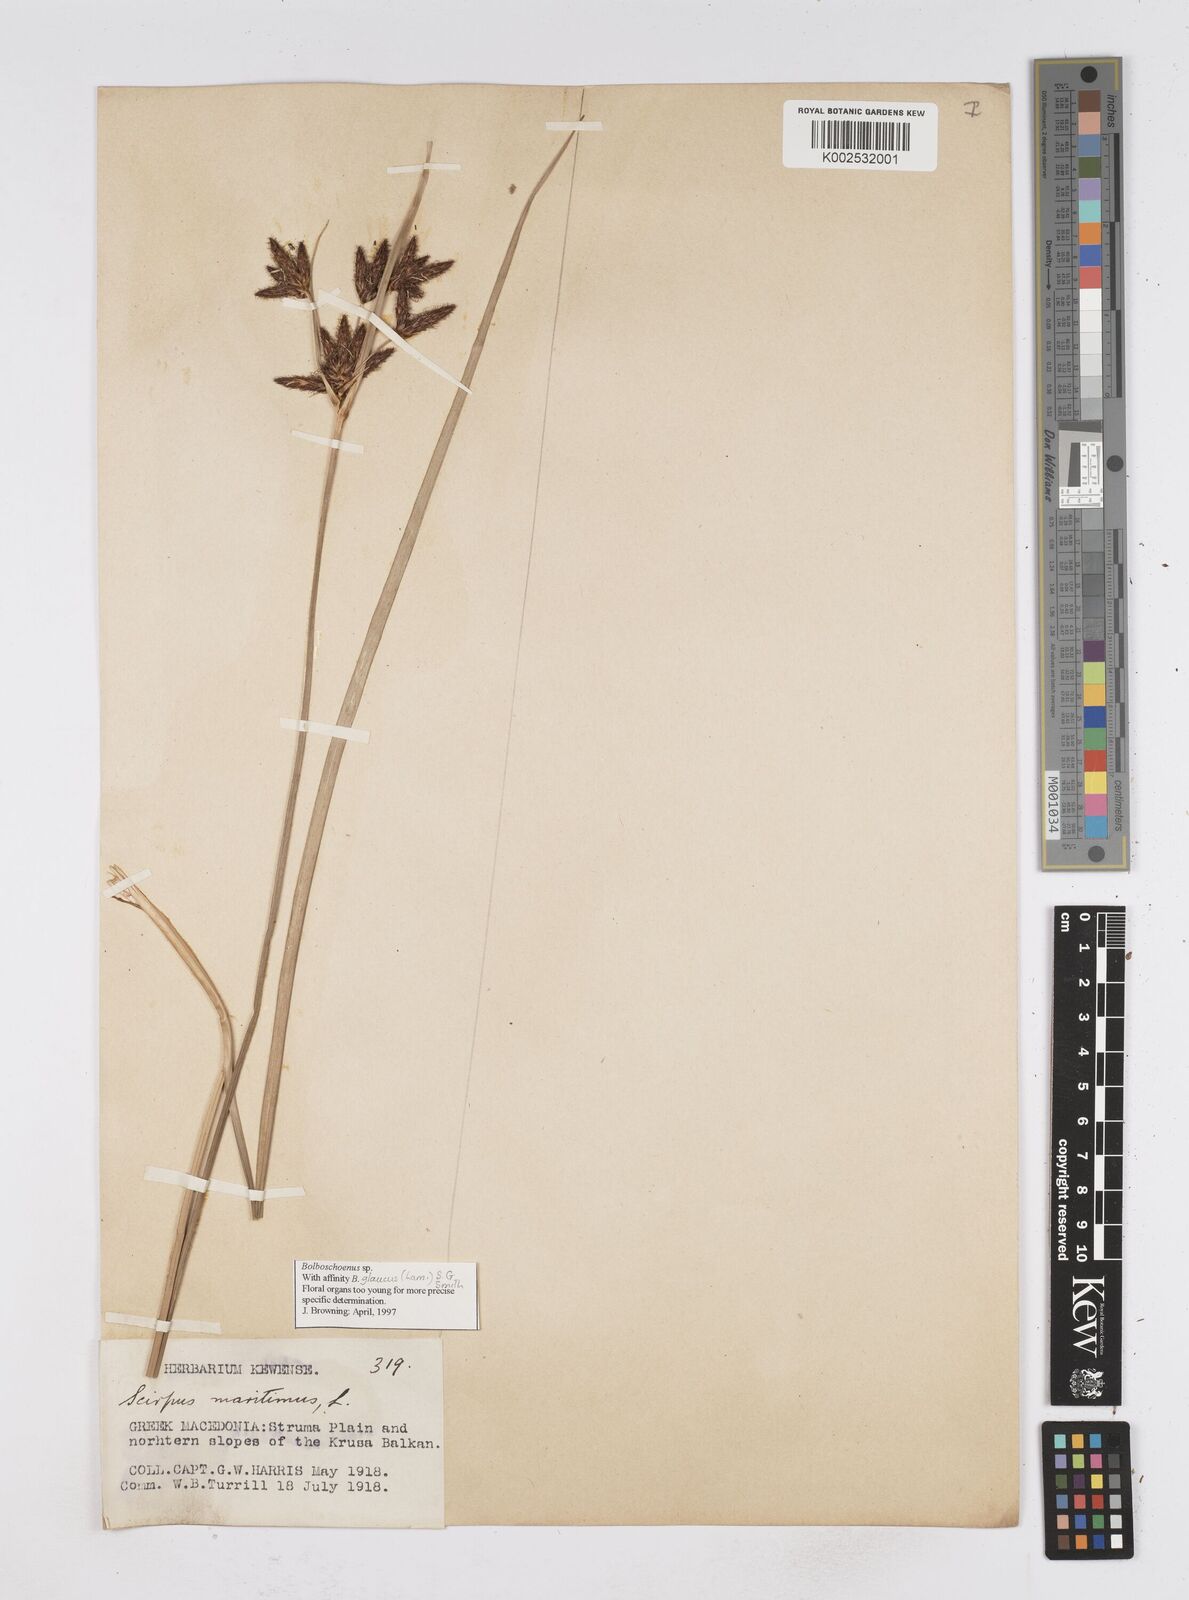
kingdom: Plantae
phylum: Tracheophyta
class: Liliopsida
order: Poales
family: Cyperaceae
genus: Bolboschoenus
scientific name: Bolboschoenus maritimus
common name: Sea club-rush
